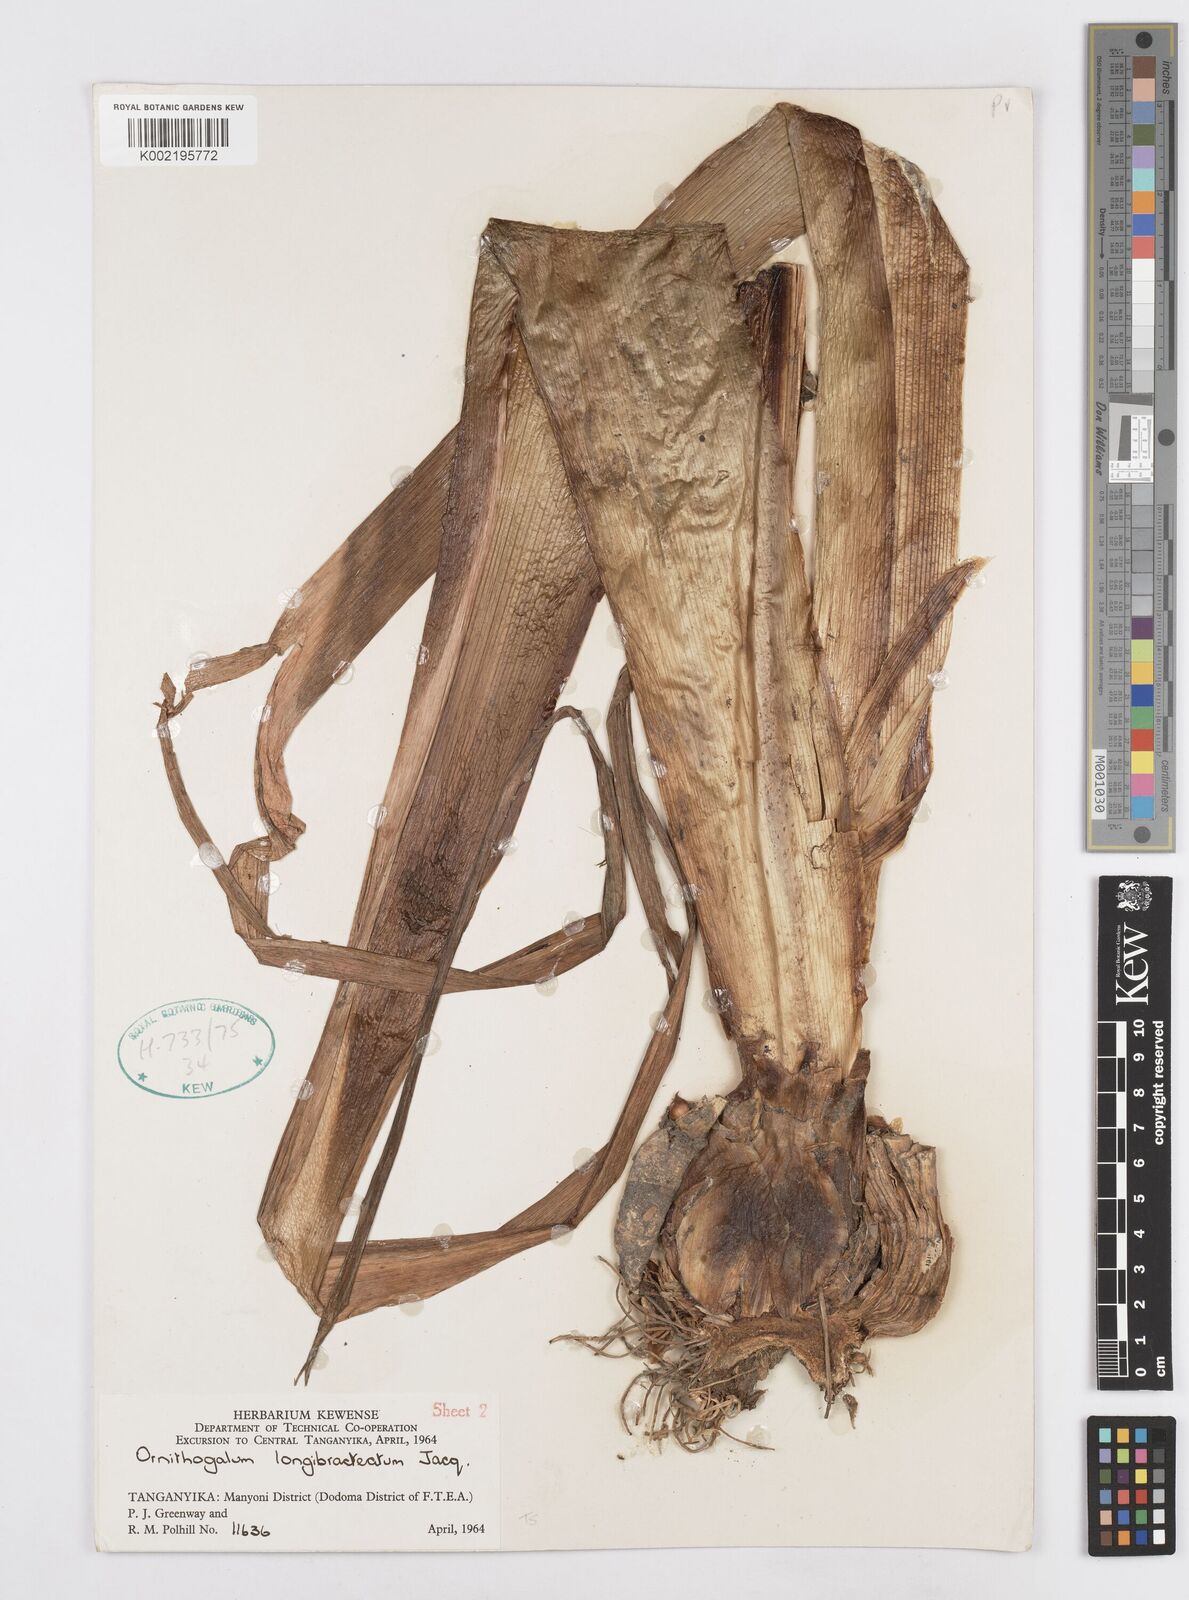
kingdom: Plantae
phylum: Tracheophyta
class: Liliopsida
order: Asparagales
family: Asparagaceae
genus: Albuca
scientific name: Albuca bracteata
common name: Sea-onion
